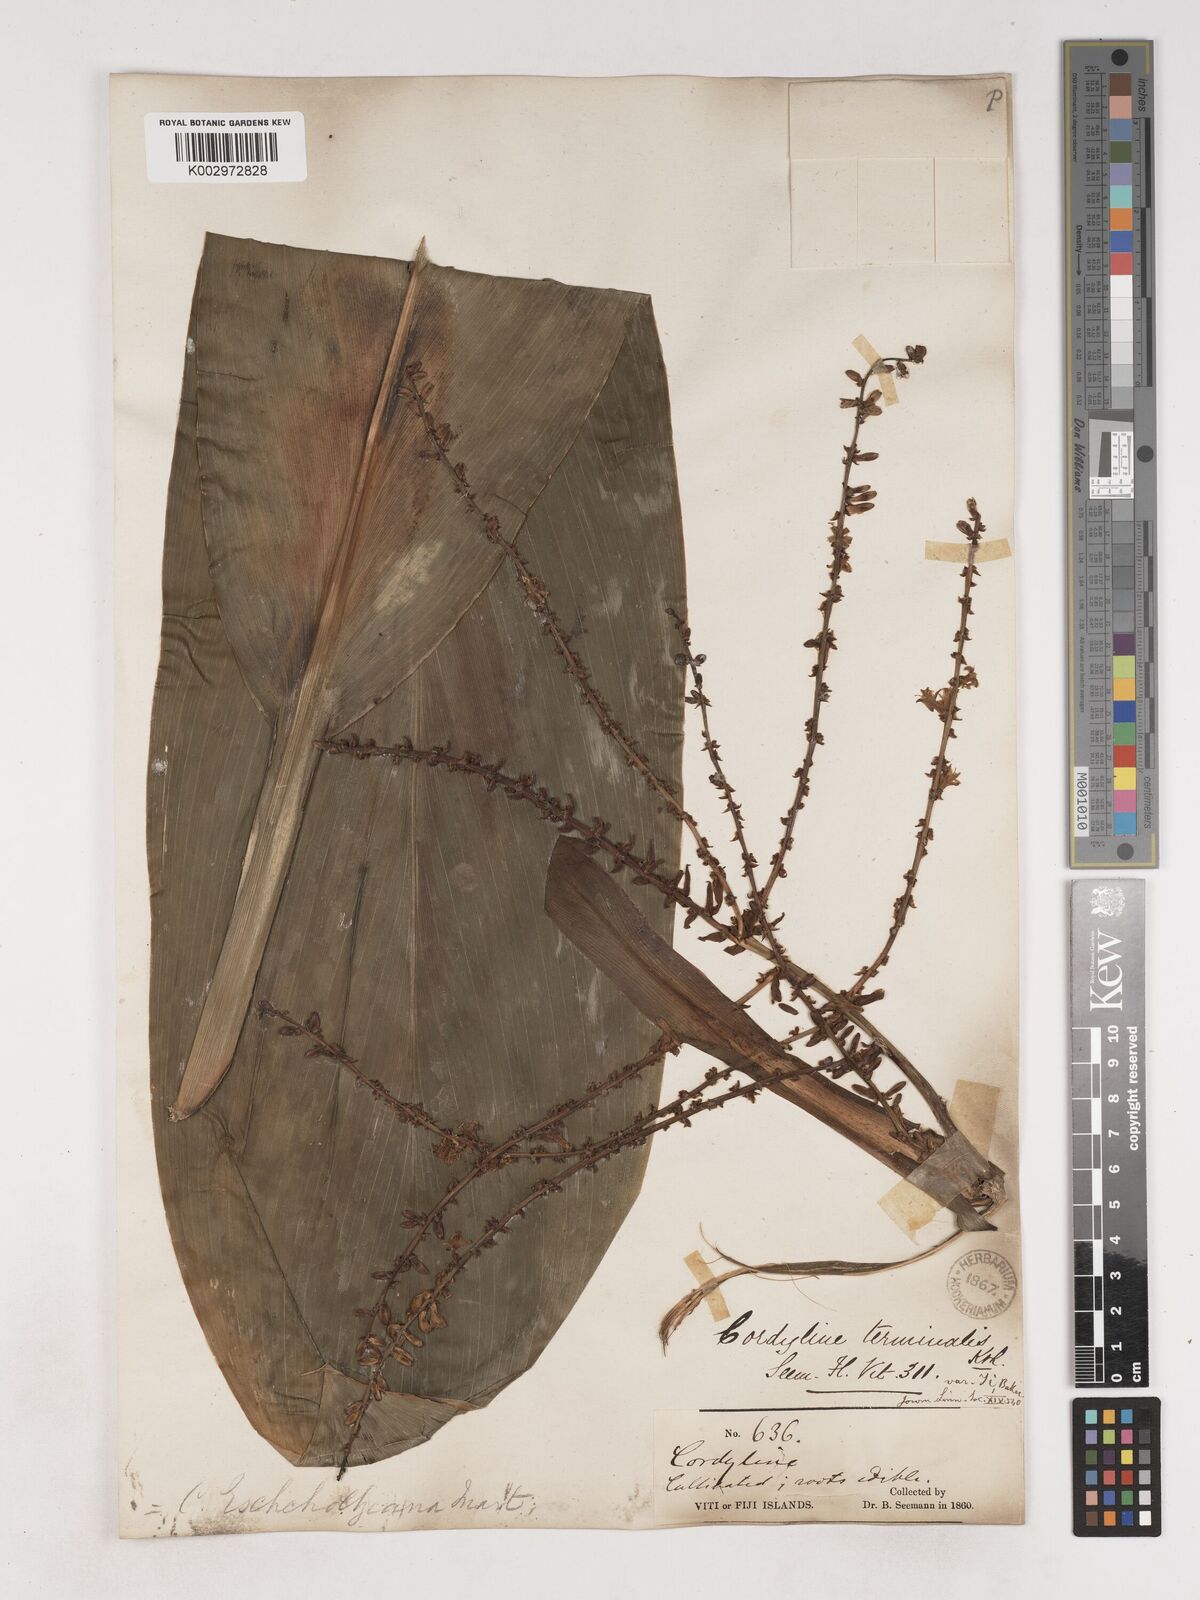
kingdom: Plantae
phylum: Tracheophyta
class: Liliopsida
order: Asparagales
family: Asparagaceae
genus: Cordyline
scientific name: Cordyline fruticosa
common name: Good-luck-plant
